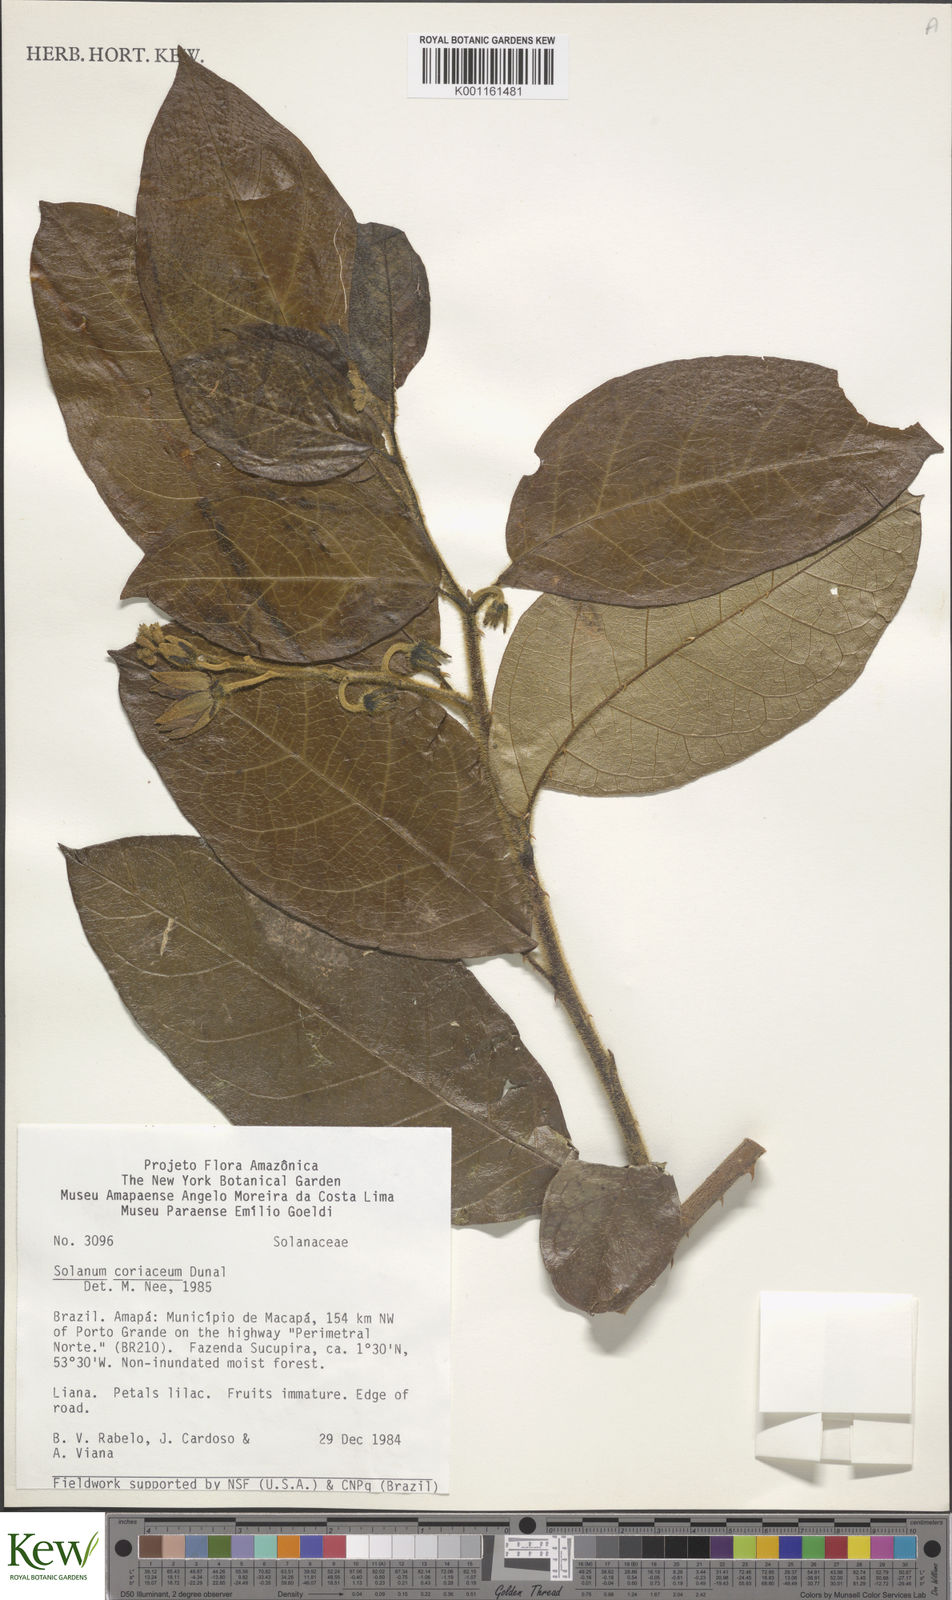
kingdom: Plantae
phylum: Tracheophyta
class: Magnoliopsida
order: Solanales
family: Solanaceae
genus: Solanum
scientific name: Solanum coriaceum
